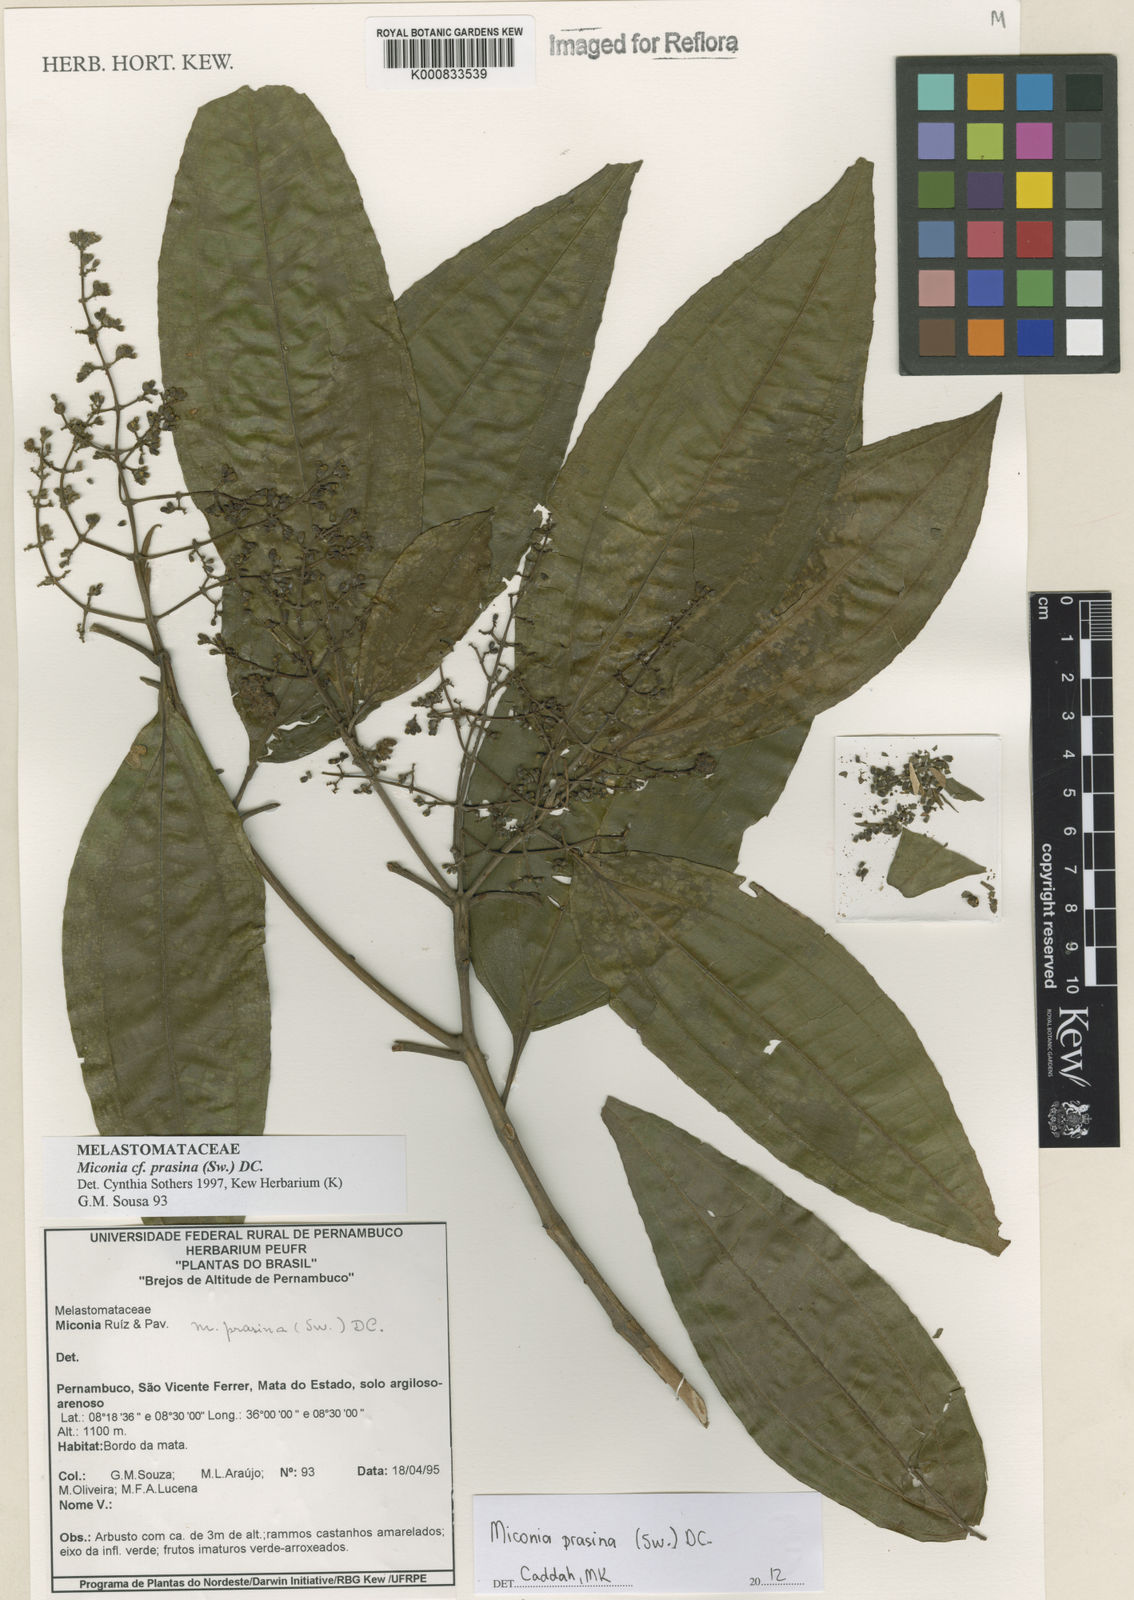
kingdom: Plantae
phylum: Tracheophyta
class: Magnoliopsida
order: Myrtales
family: Melastomataceae
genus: Miconia
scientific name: Miconia prasina
